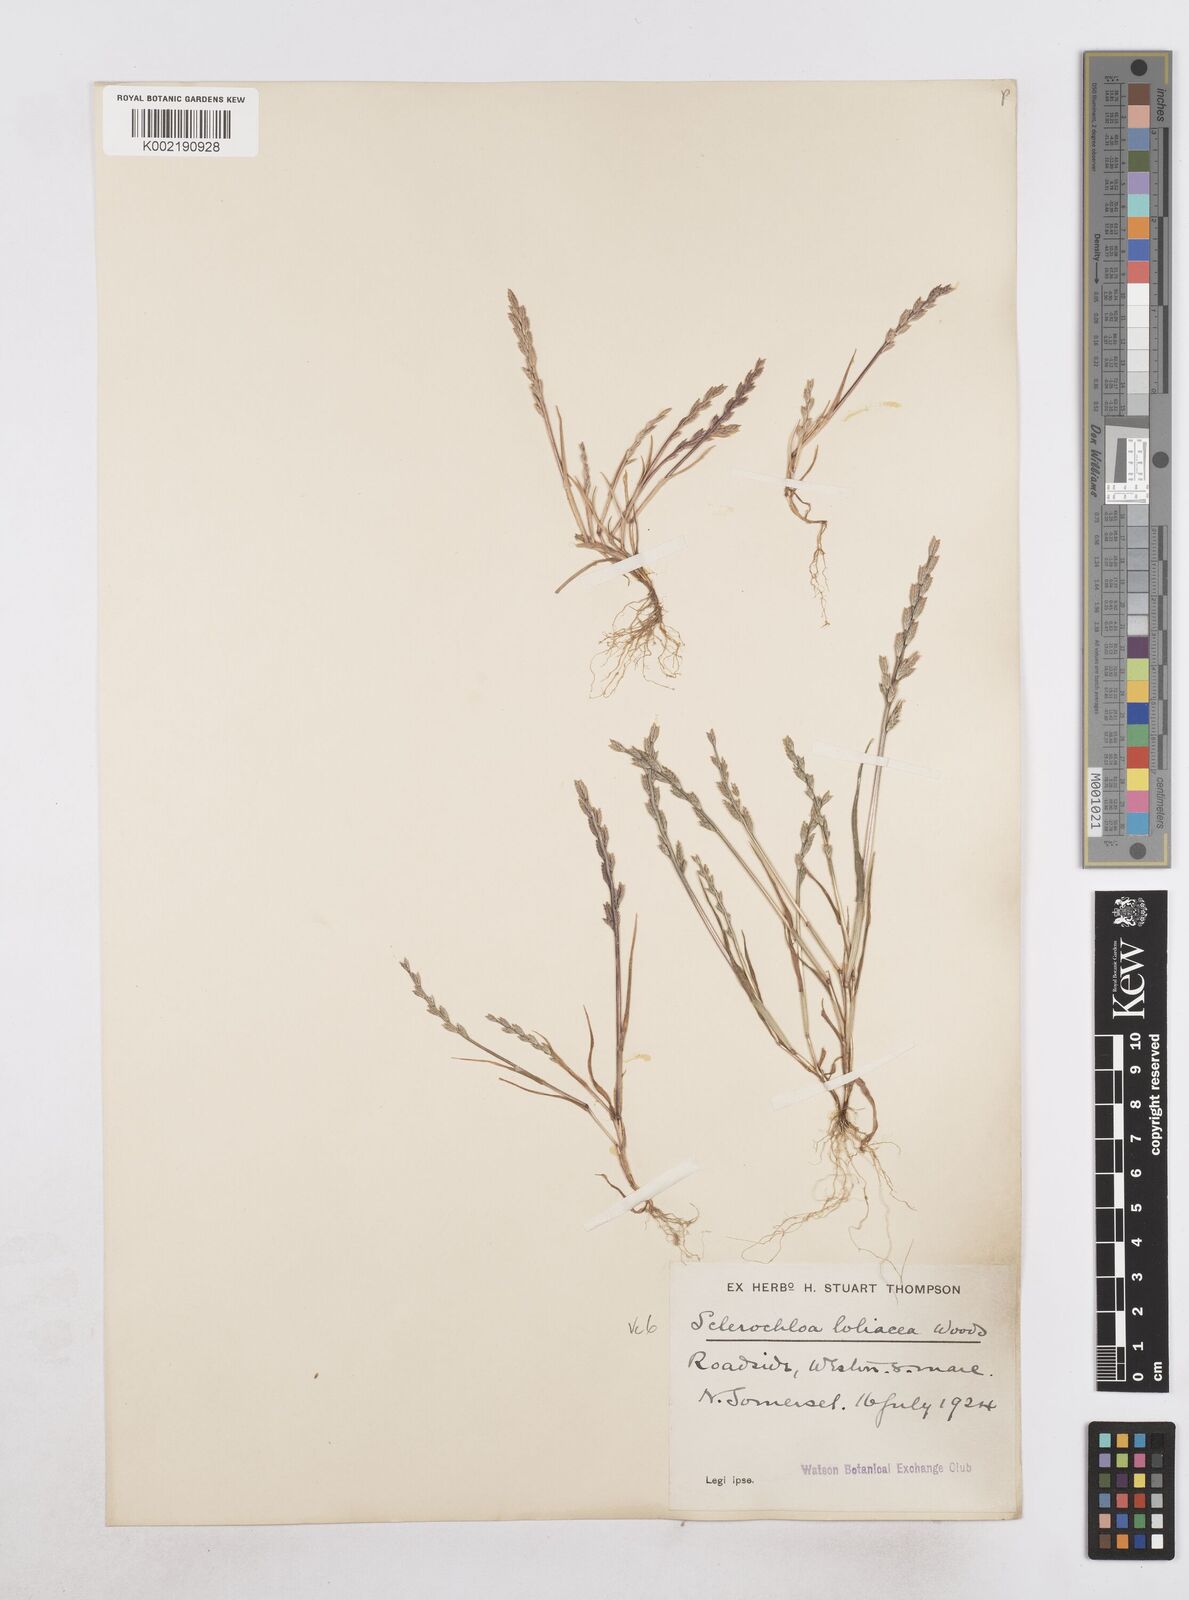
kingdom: Plantae
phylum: Tracheophyta
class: Liliopsida
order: Poales
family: Poaceae
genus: Catapodium
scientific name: Catapodium marinum
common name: Sea fern-grass
